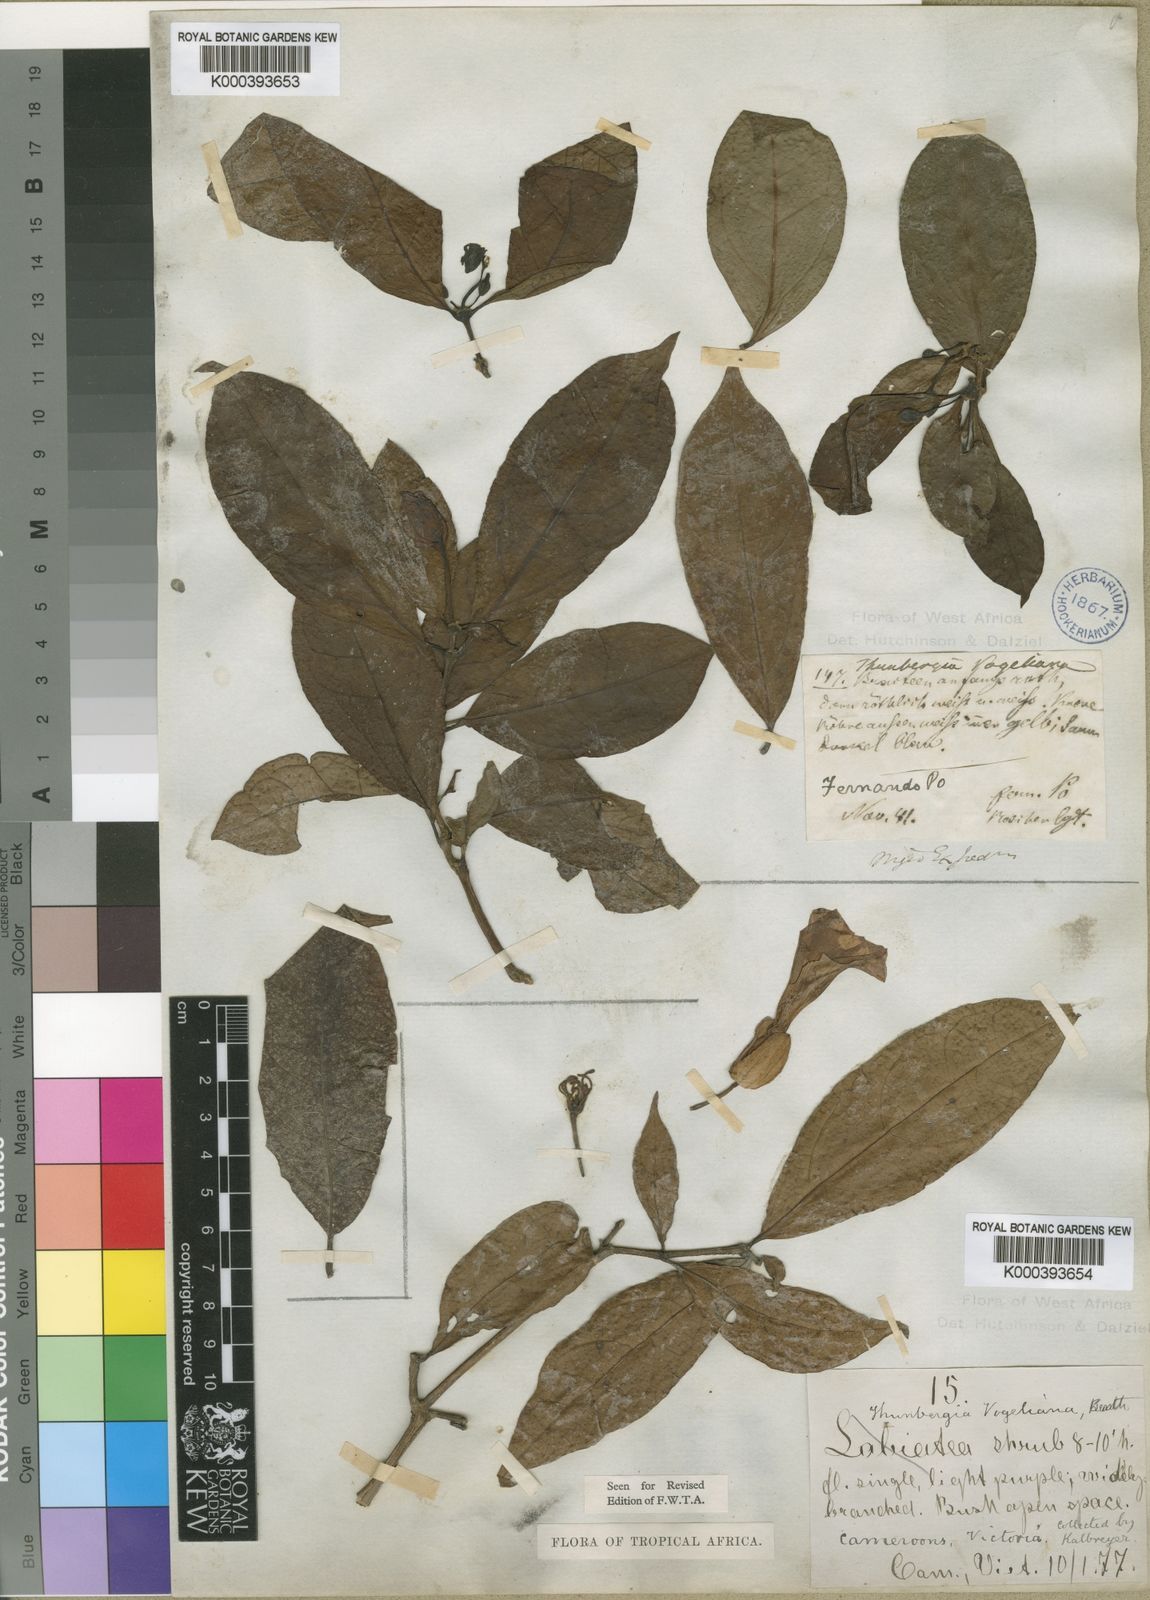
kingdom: Plantae
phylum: Tracheophyta
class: Magnoliopsida
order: Lamiales
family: Acanthaceae
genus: Thunbergia
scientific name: Thunbergia vogeliana
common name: Acanthaceae
